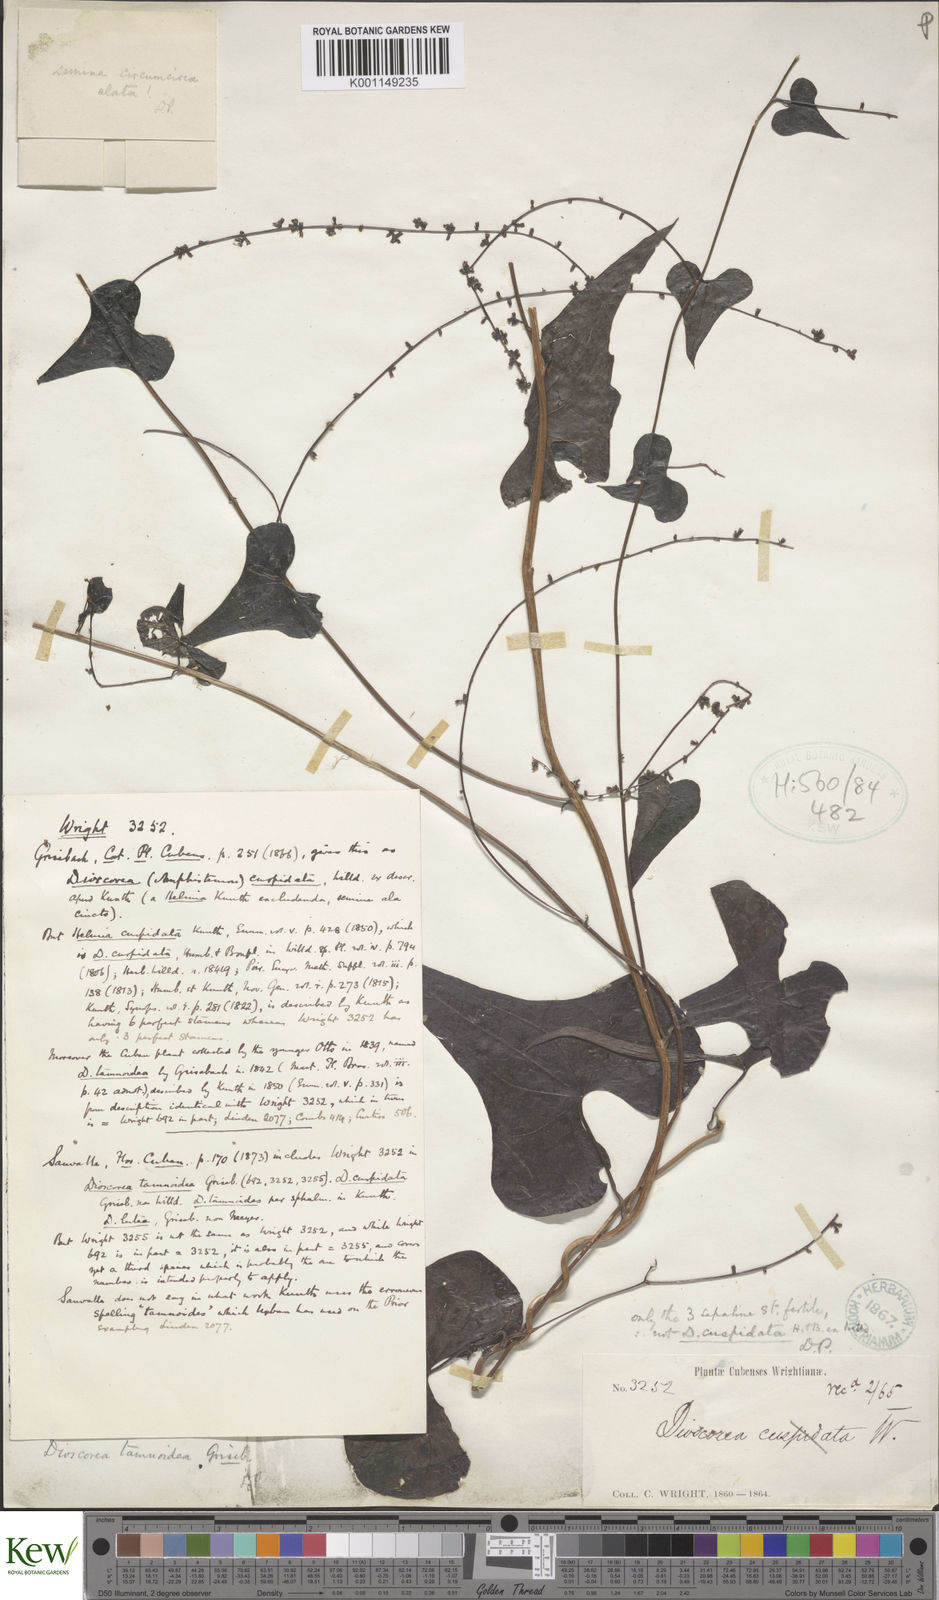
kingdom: Plantae
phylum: Tracheophyta
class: Liliopsida
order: Dioscoreales
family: Dioscoreaceae
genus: Dioscorea
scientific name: Dioscorea tamoidea
